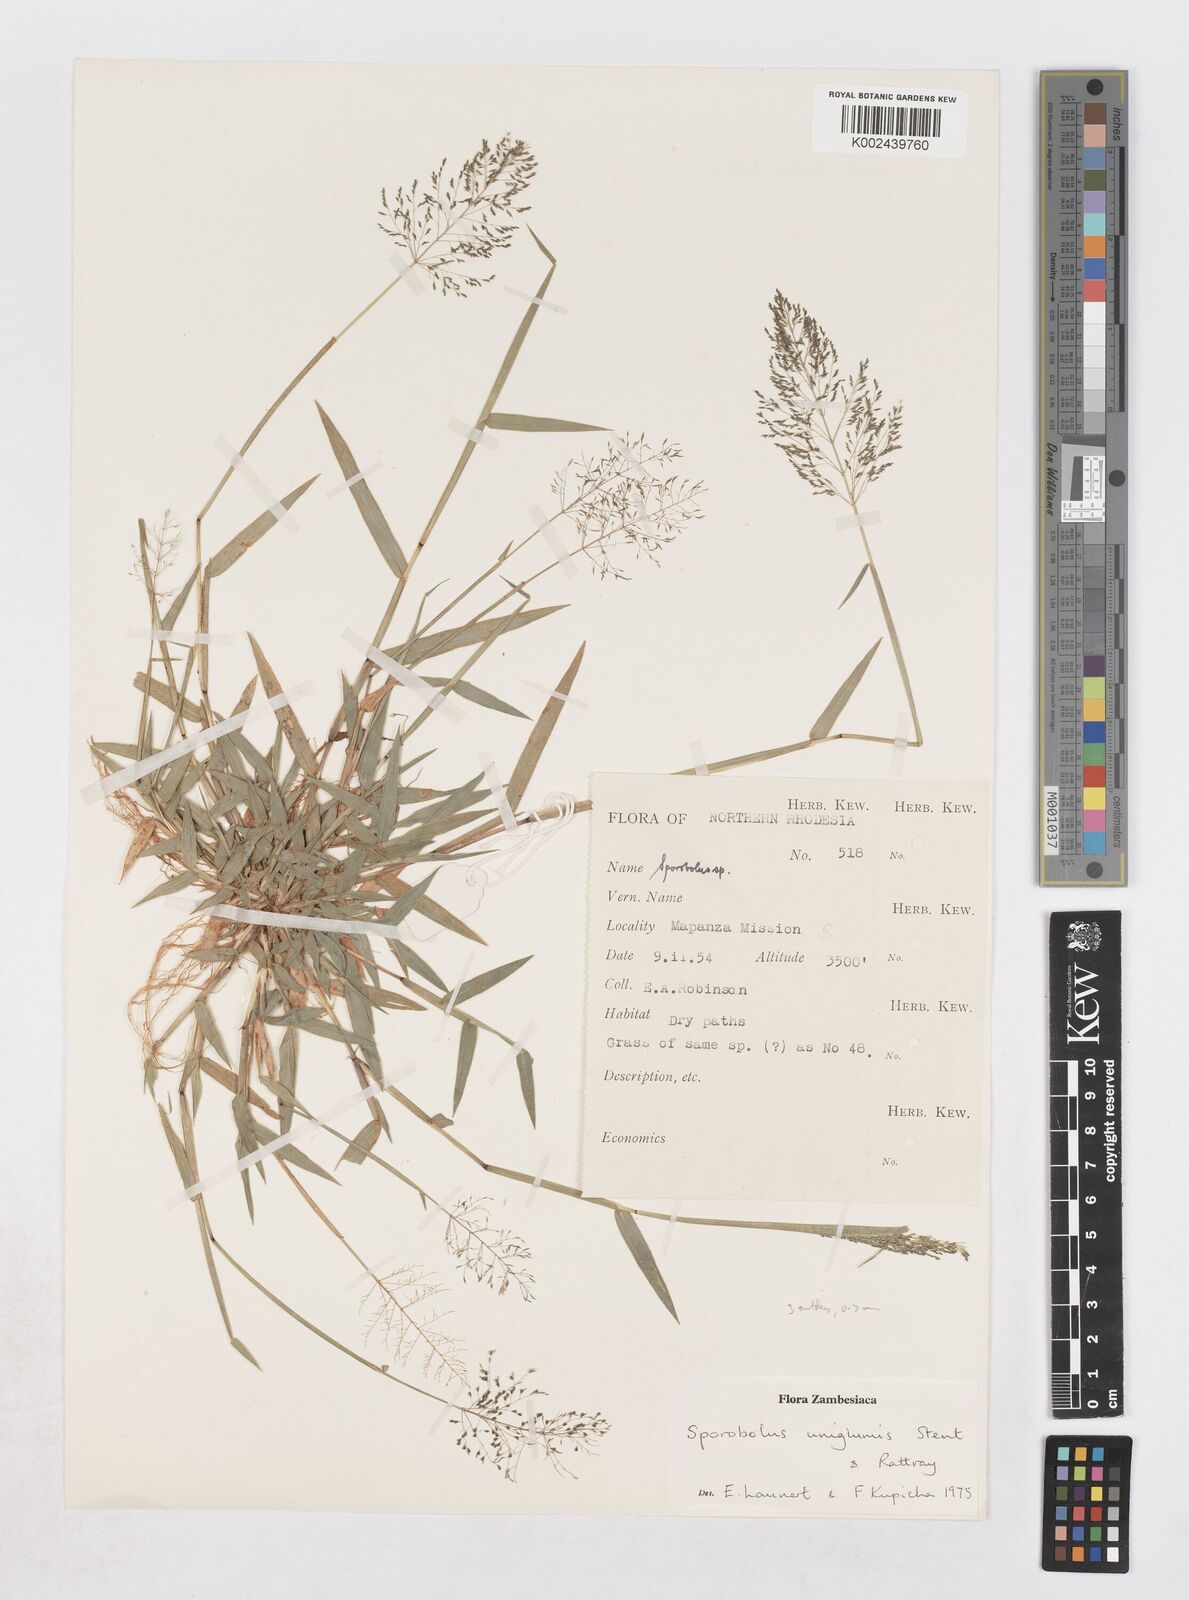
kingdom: Plantae
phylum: Tracheophyta
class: Liliopsida
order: Poales
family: Poaceae
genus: Sporobolus
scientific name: Sporobolus uniglumis
